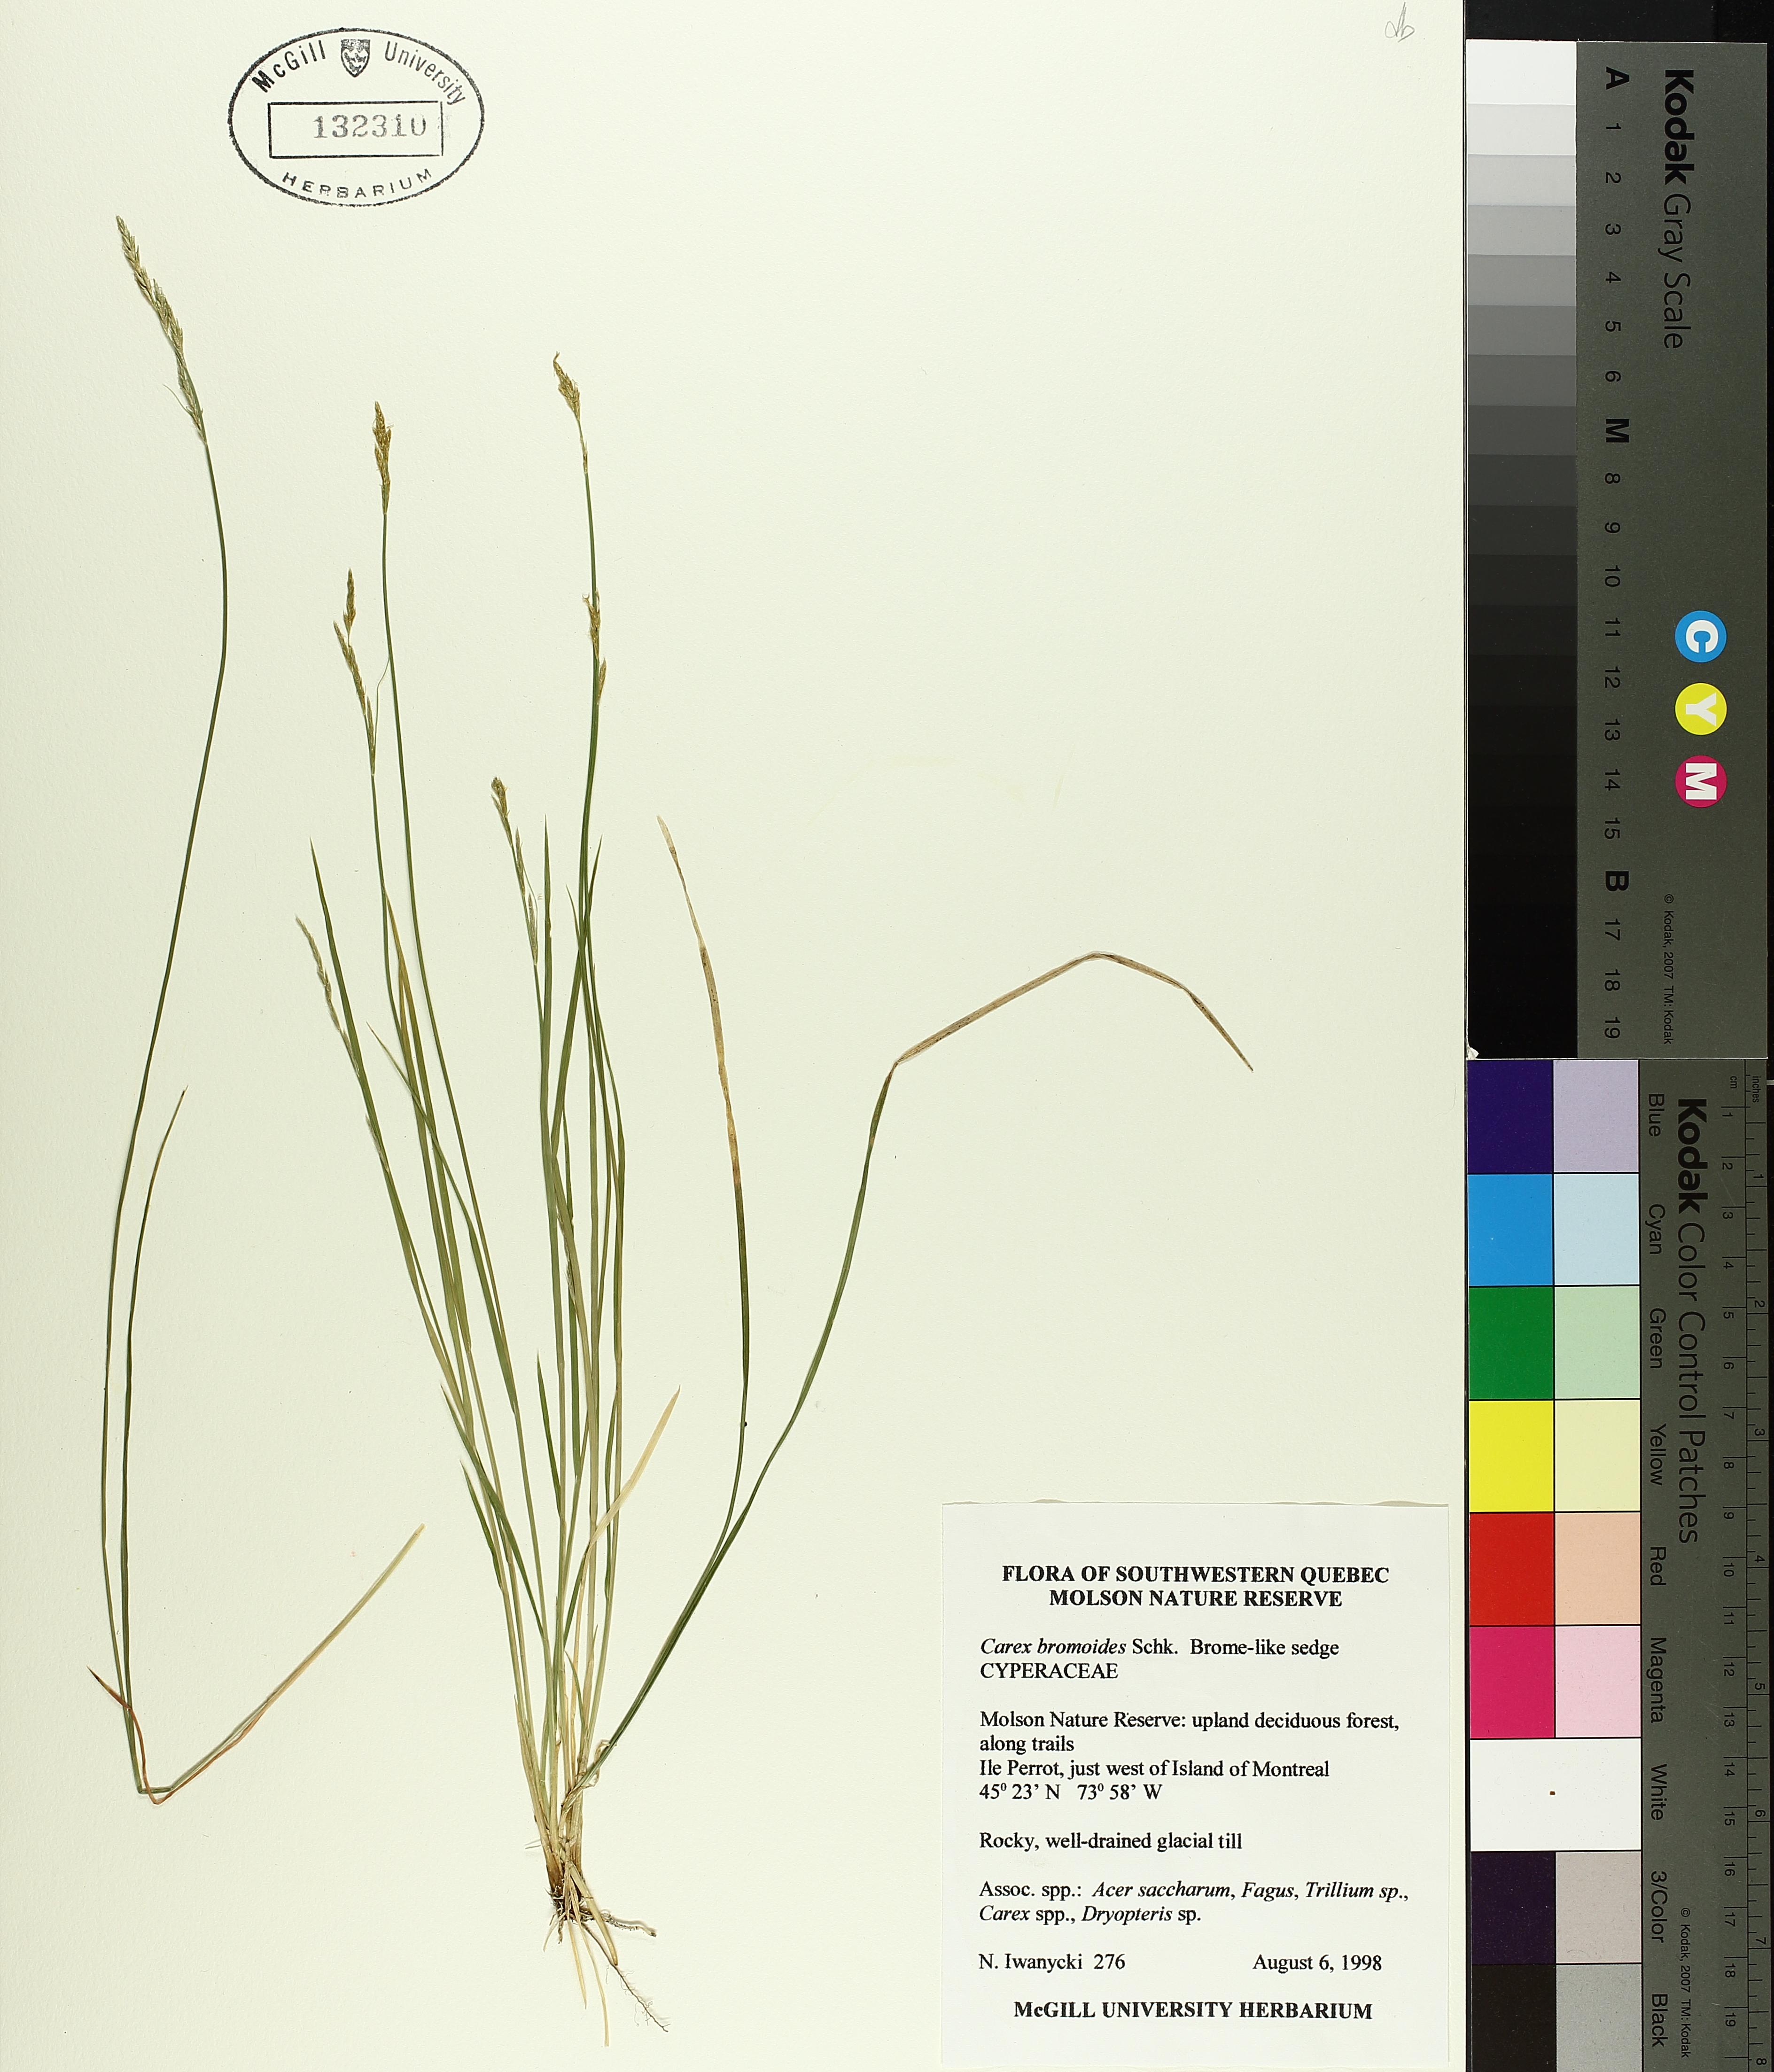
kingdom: Plantae
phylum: Tracheophyta
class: Liliopsida
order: Poales
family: Cyperaceae
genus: Carex
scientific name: Carex bromoides
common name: Brome hummock sedge
